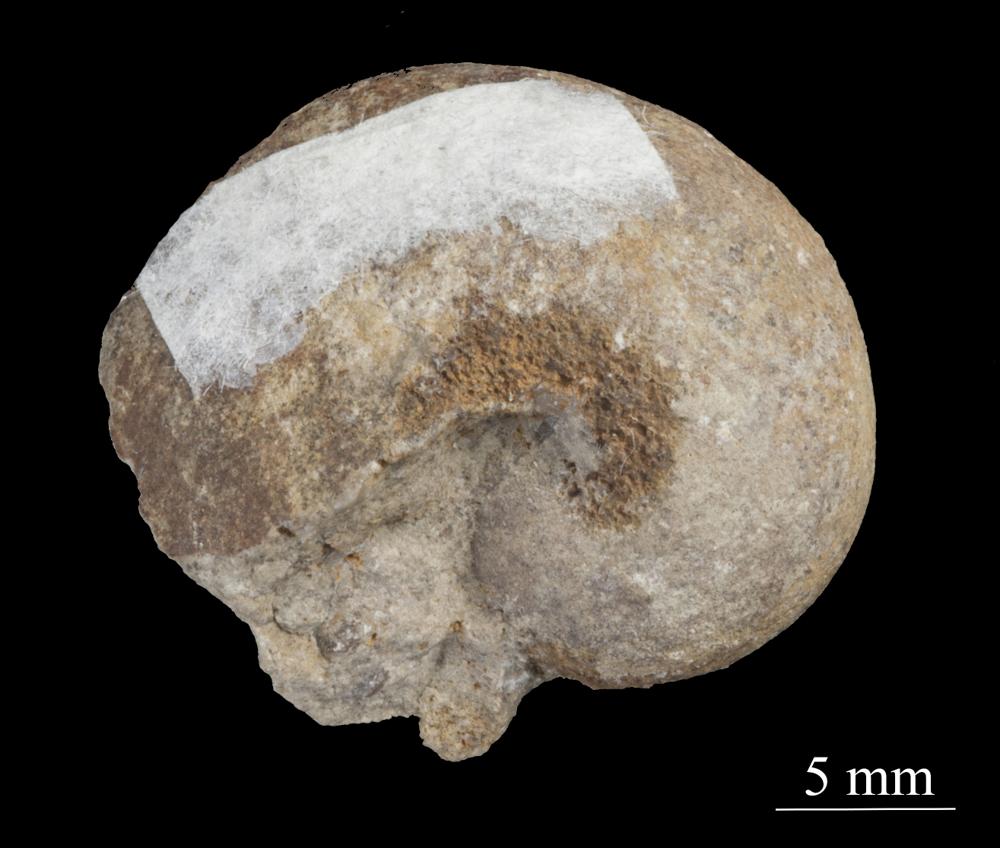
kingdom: Animalia
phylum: Mollusca
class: Gastropoda
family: Sinuitidae
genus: Sinuites
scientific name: Sinuites bilobatus
